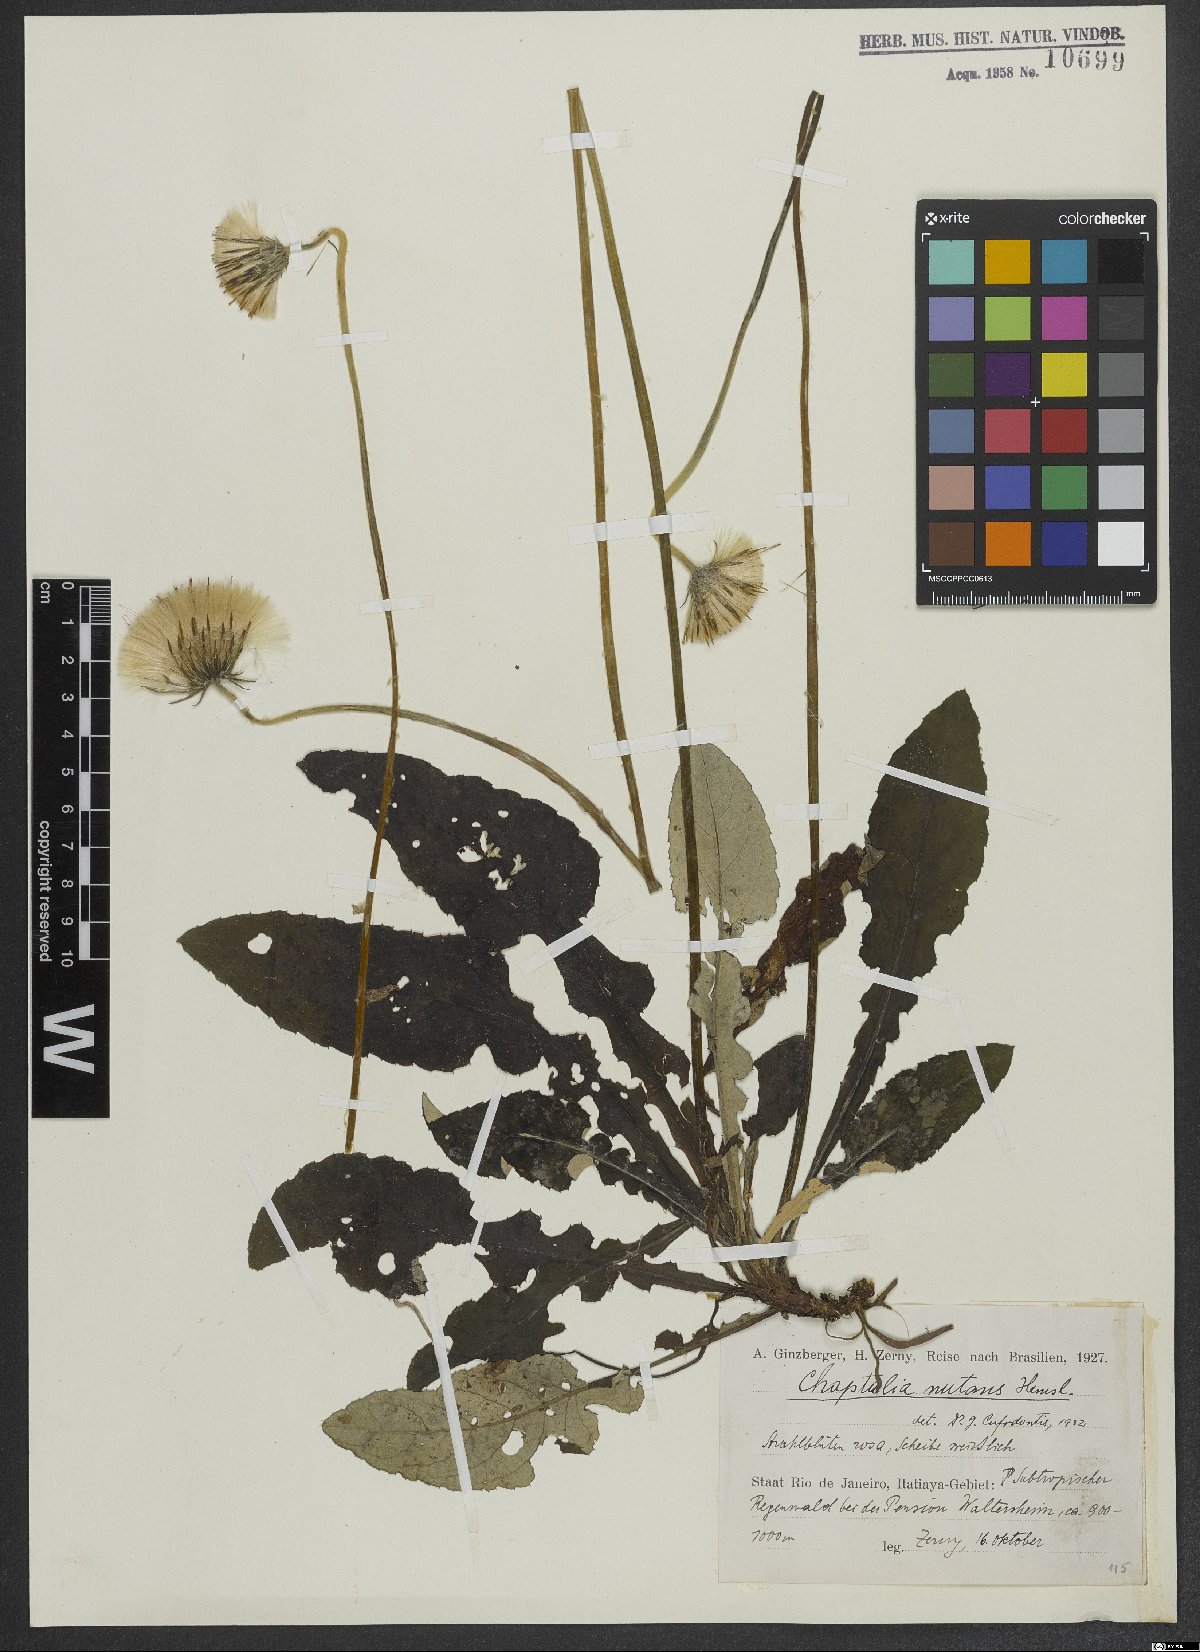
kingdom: Plantae
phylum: Tracheophyta
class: Magnoliopsida
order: Asterales
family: Asteraceae
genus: Chaptalia
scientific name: Chaptalia nutans
